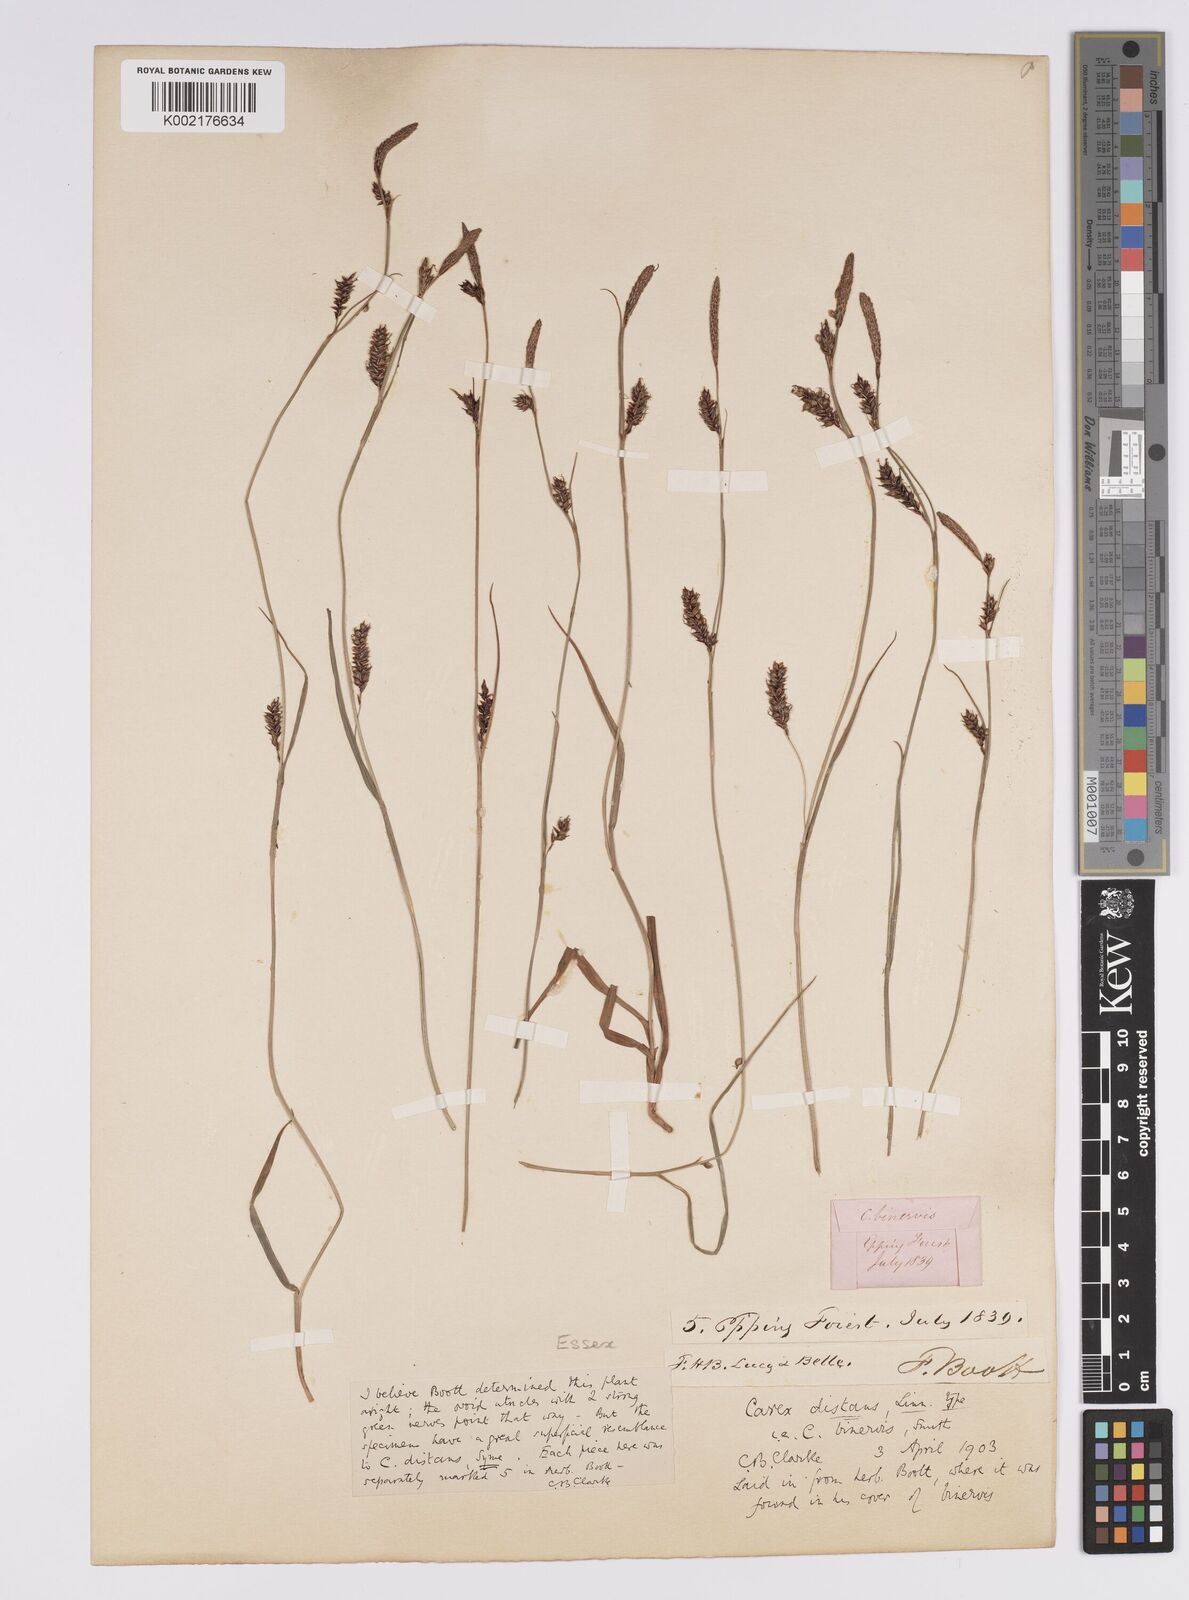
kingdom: Plantae
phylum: Tracheophyta
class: Liliopsida
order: Poales
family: Cyperaceae
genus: Carex
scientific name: Carex binervis
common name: Green-ribbed sedge
